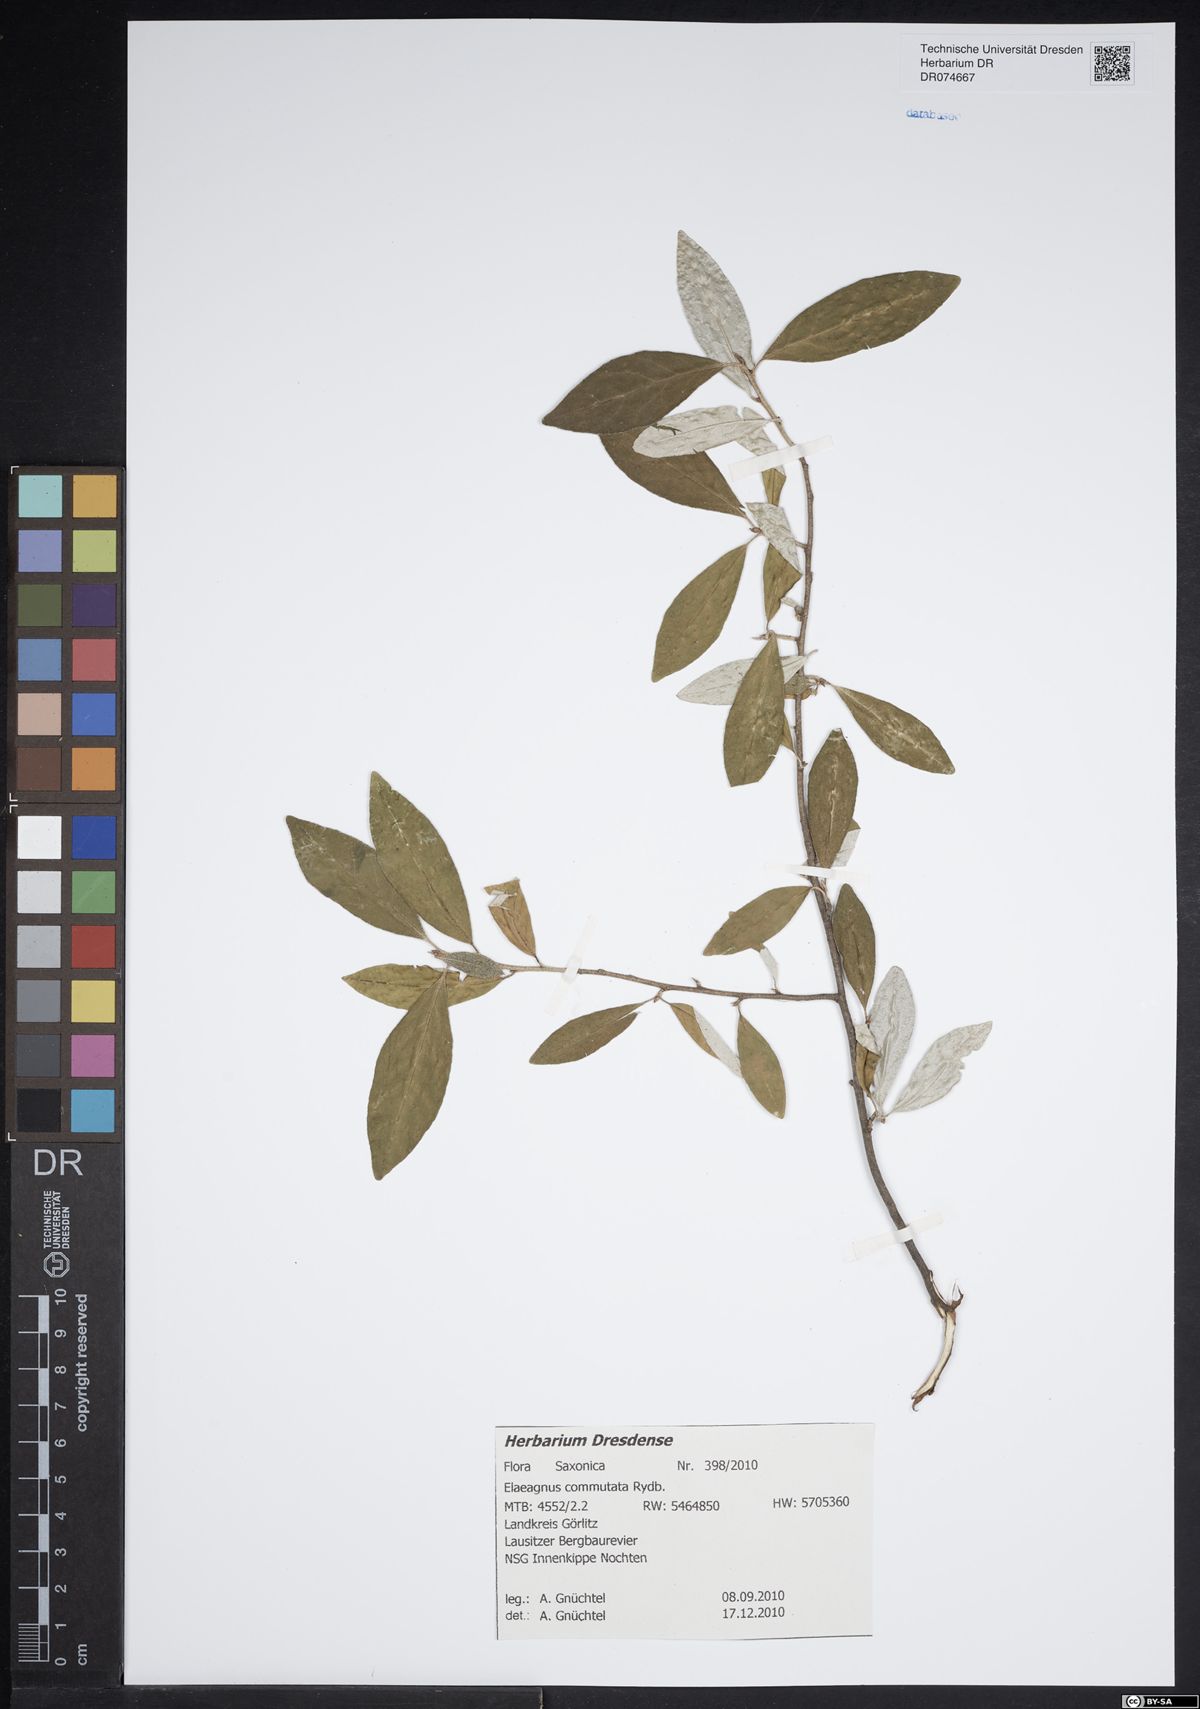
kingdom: Plantae
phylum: Tracheophyta
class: Magnoliopsida
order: Rosales
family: Elaeagnaceae
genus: Elaeagnus
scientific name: Elaeagnus commutata
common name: Silverberry
